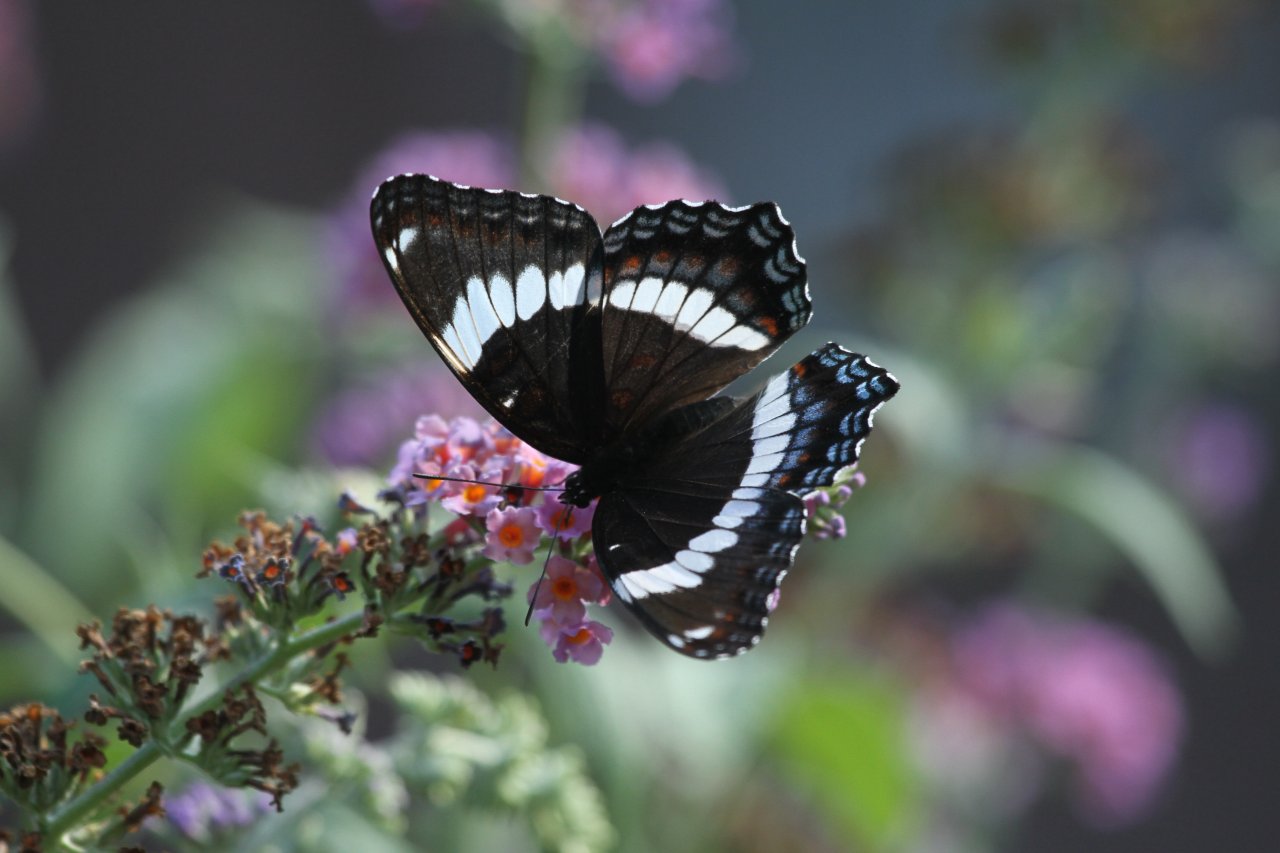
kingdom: Animalia
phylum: Arthropoda
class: Insecta
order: Lepidoptera
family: Nymphalidae
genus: Limenitis
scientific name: Limenitis arthemis
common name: Red-spotted Admiral
